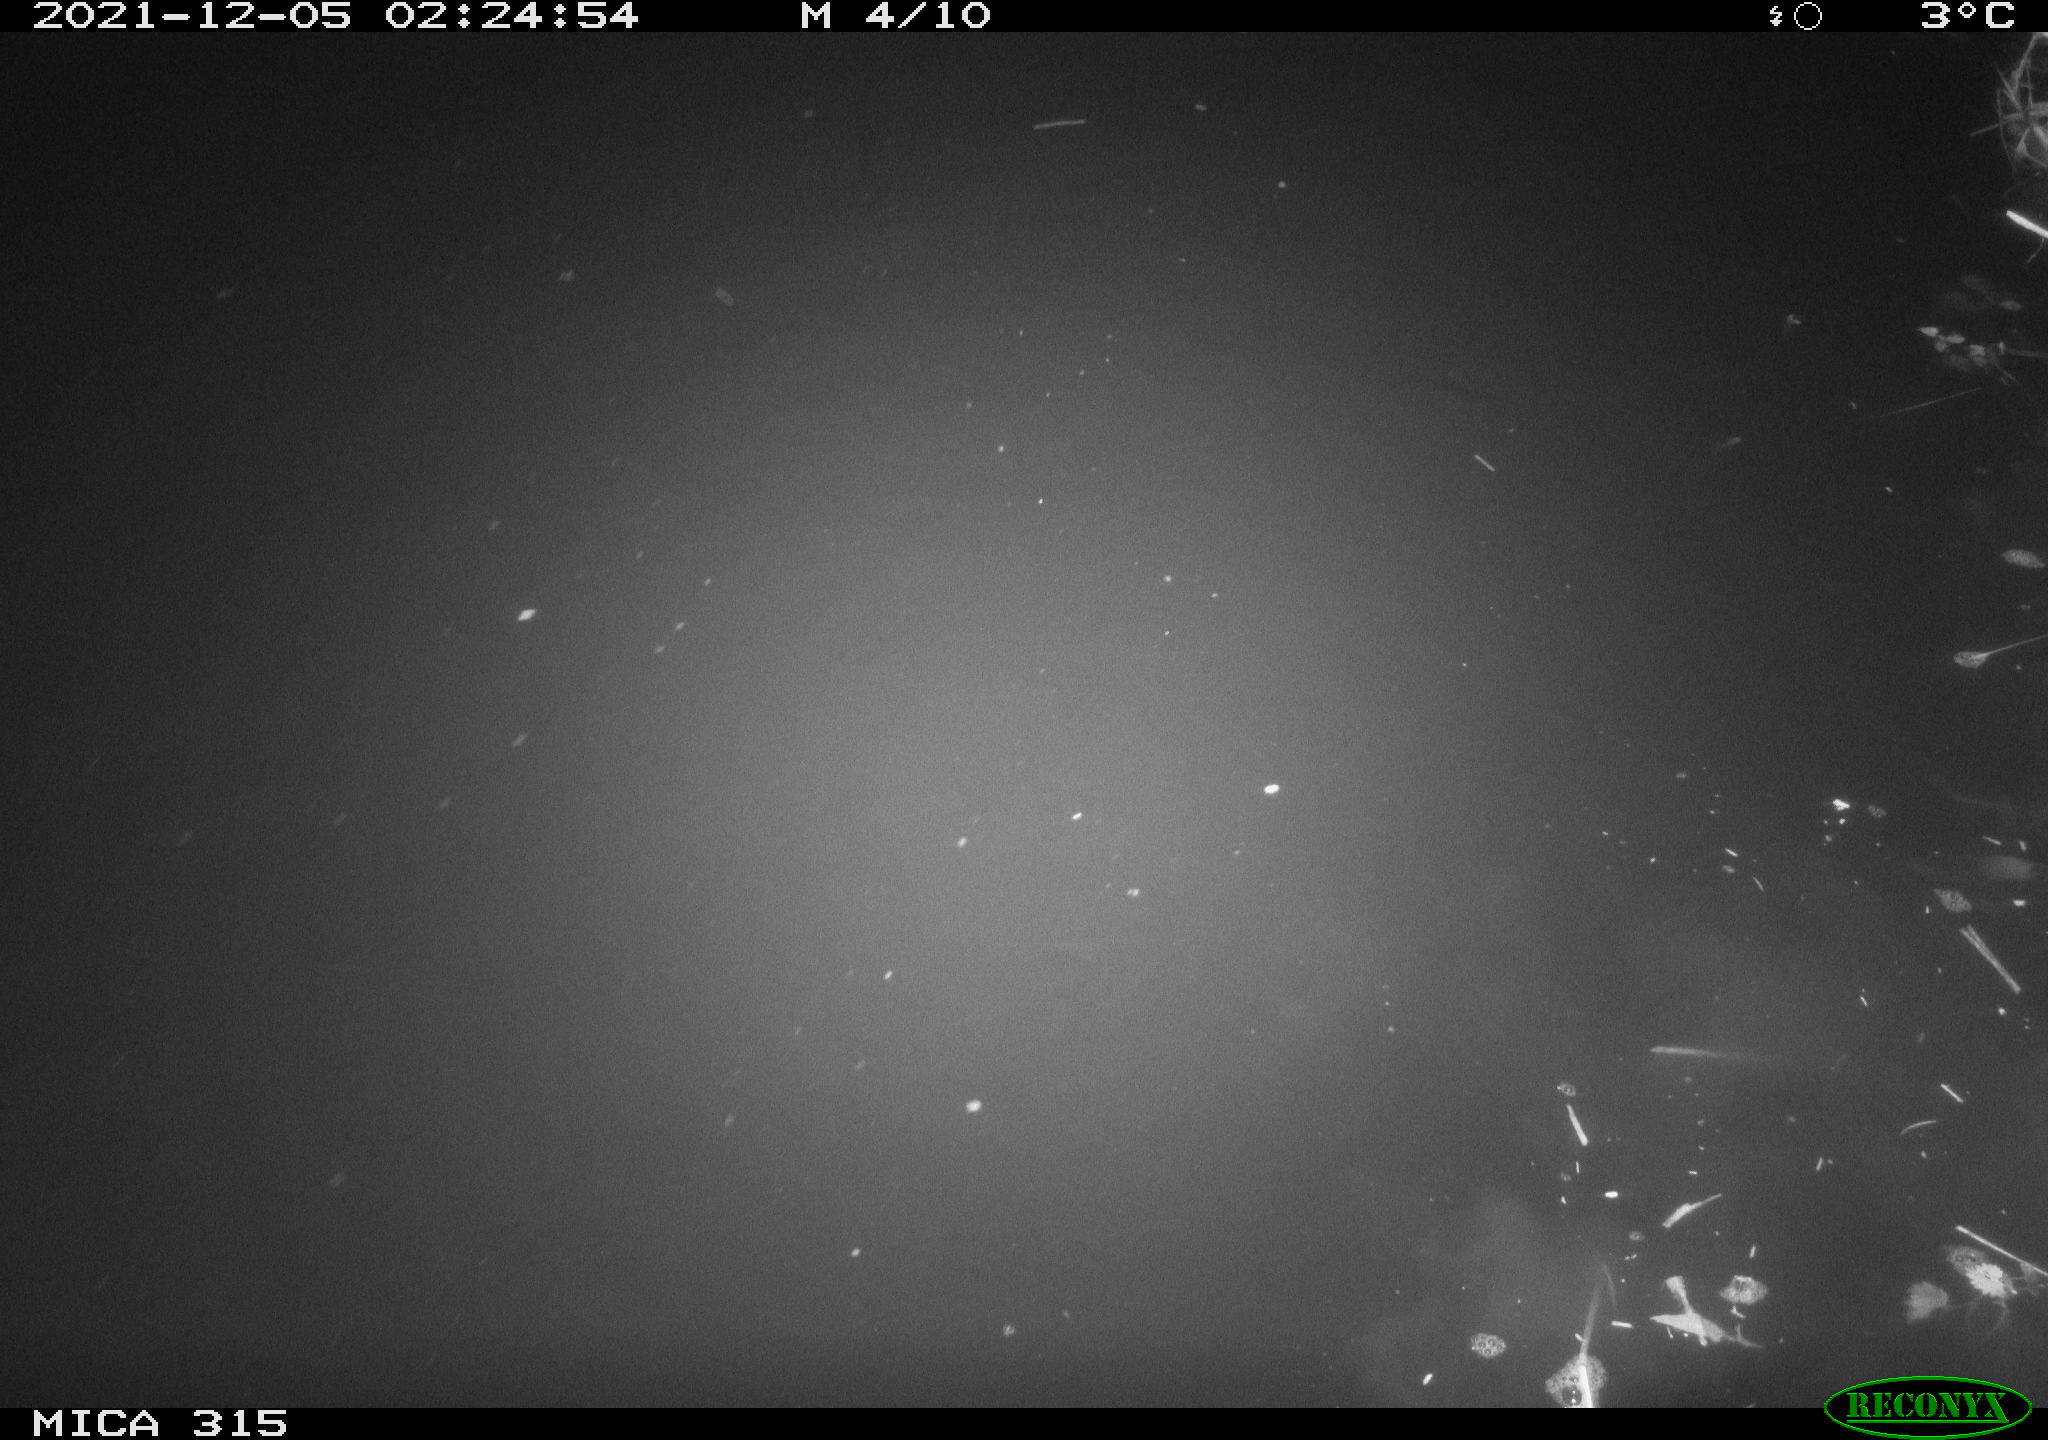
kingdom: Animalia
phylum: Chordata
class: Aves
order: Anseriformes
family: Anatidae
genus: Anas
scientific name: Anas platyrhynchos
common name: Mallard
